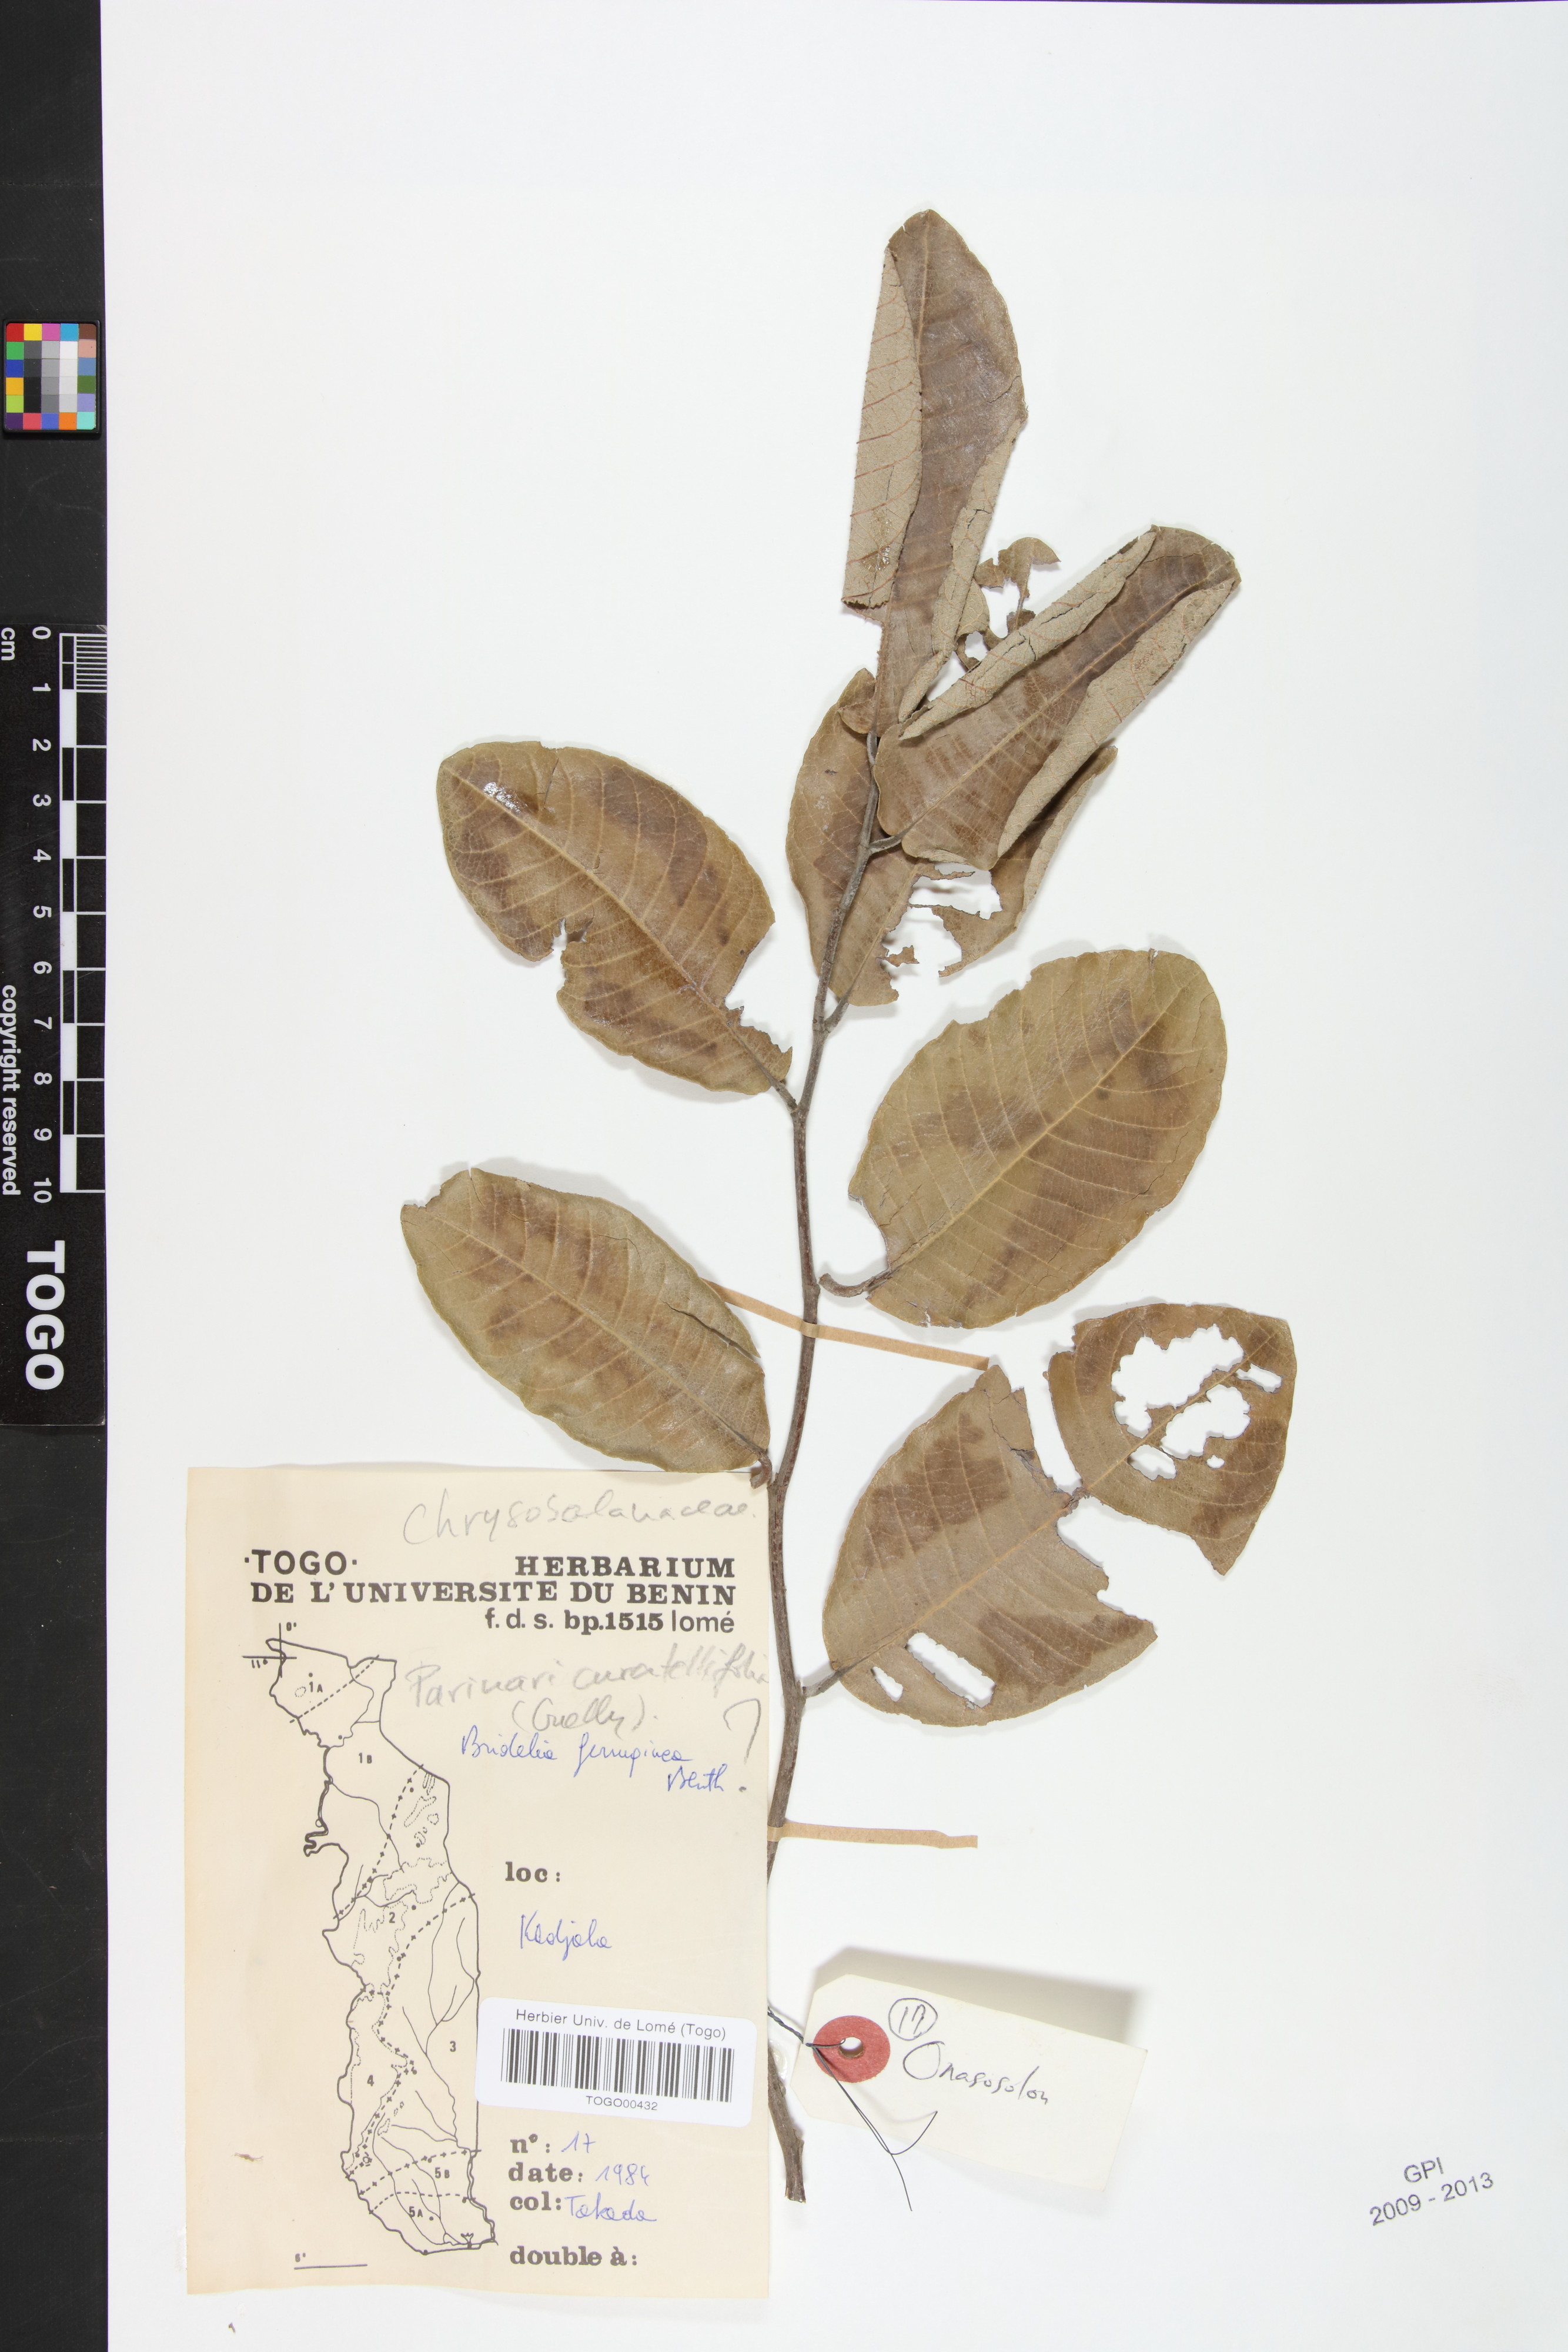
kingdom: Plantae
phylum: Tracheophyta
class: Magnoliopsida
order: Malpighiales
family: Chrysobalanaceae
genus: Parinari
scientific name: Parinari curatellifolia
